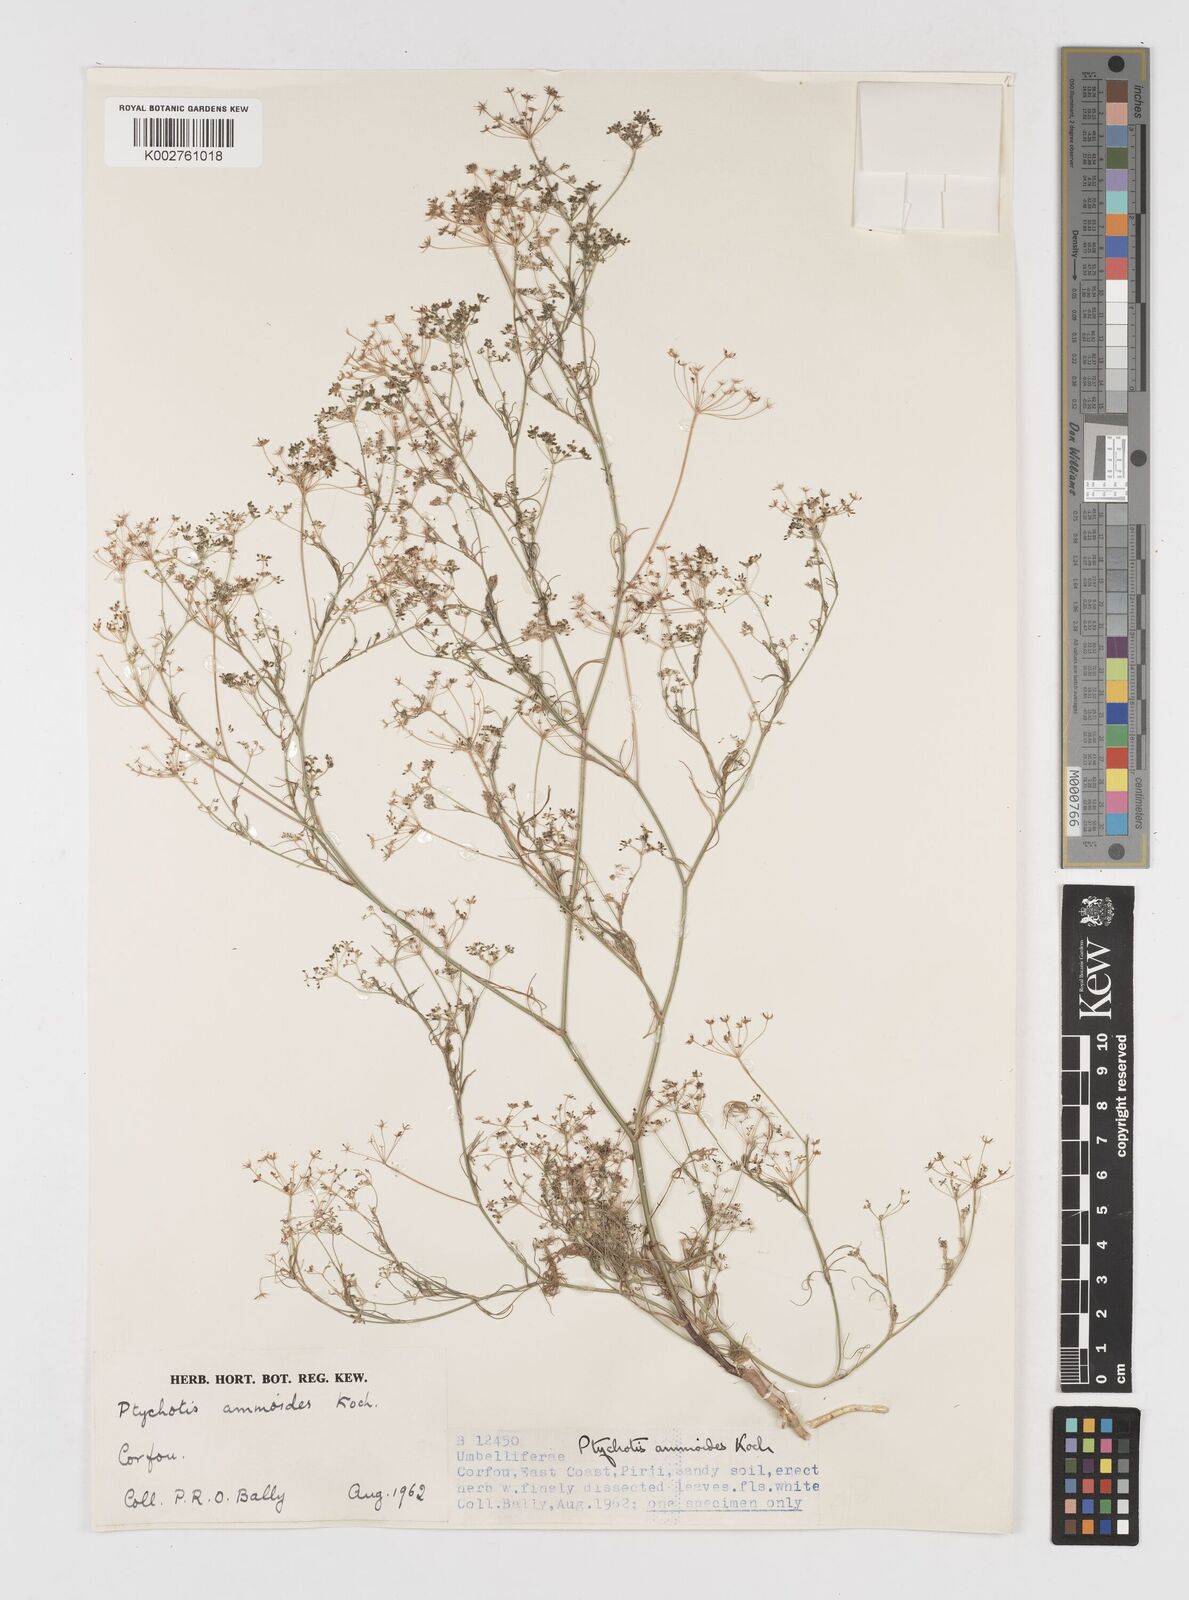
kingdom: Plantae
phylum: Tracheophyta
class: Magnoliopsida
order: Apiales
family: Apiaceae
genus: Ammoides
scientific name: Ammoides pusilla
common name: Cerfolium
